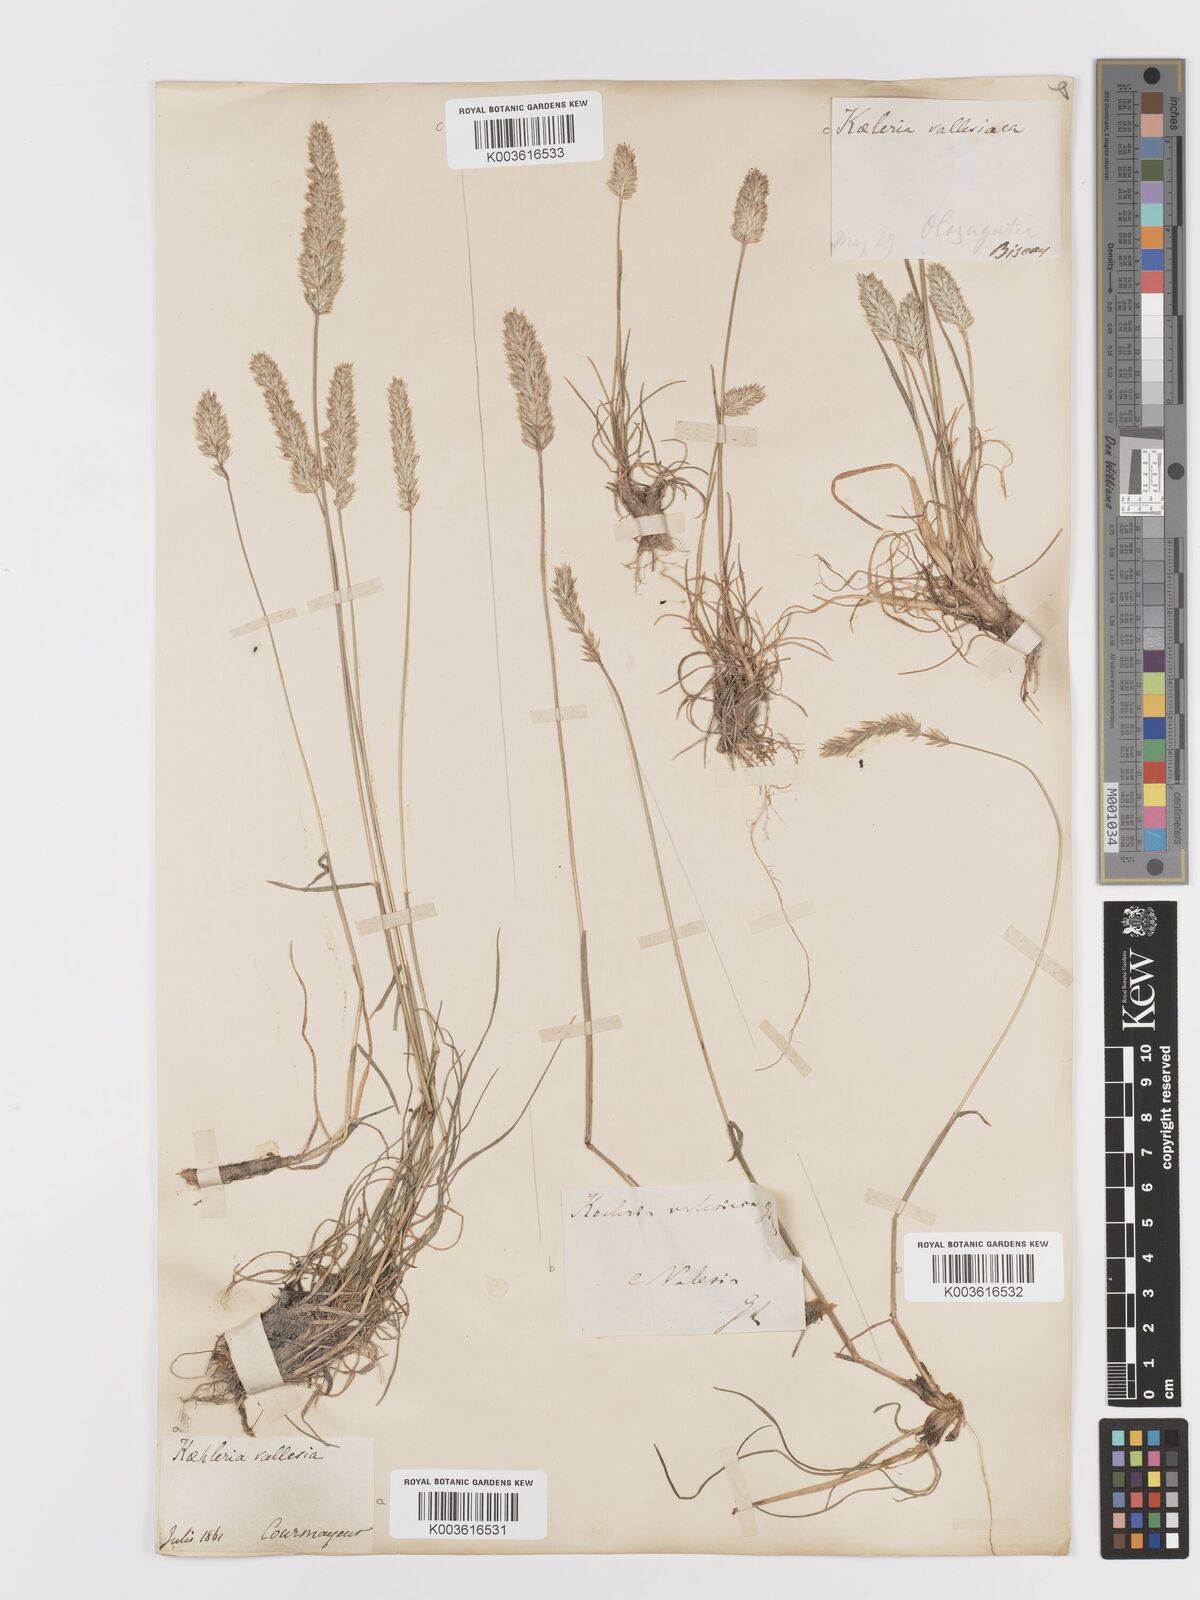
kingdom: Plantae
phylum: Tracheophyta
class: Liliopsida
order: Poales
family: Poaceae
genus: Koeleria
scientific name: Koeleria vallesiana
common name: Somerset hair-grass
